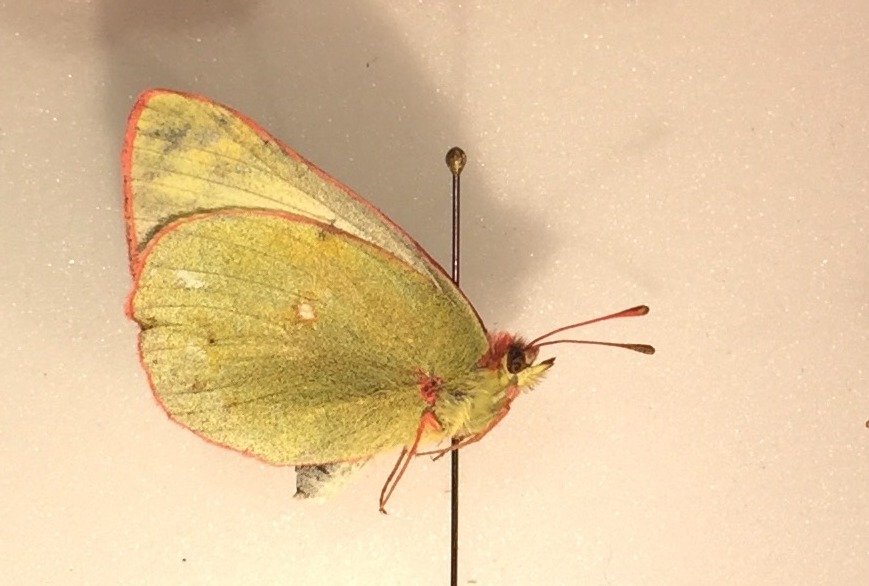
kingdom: Animalia
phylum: Arthropoda
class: Insecta
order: Lepidoptera
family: Pieridae
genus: Colias
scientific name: Colias pelidne
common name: Pelidne Sulphur
